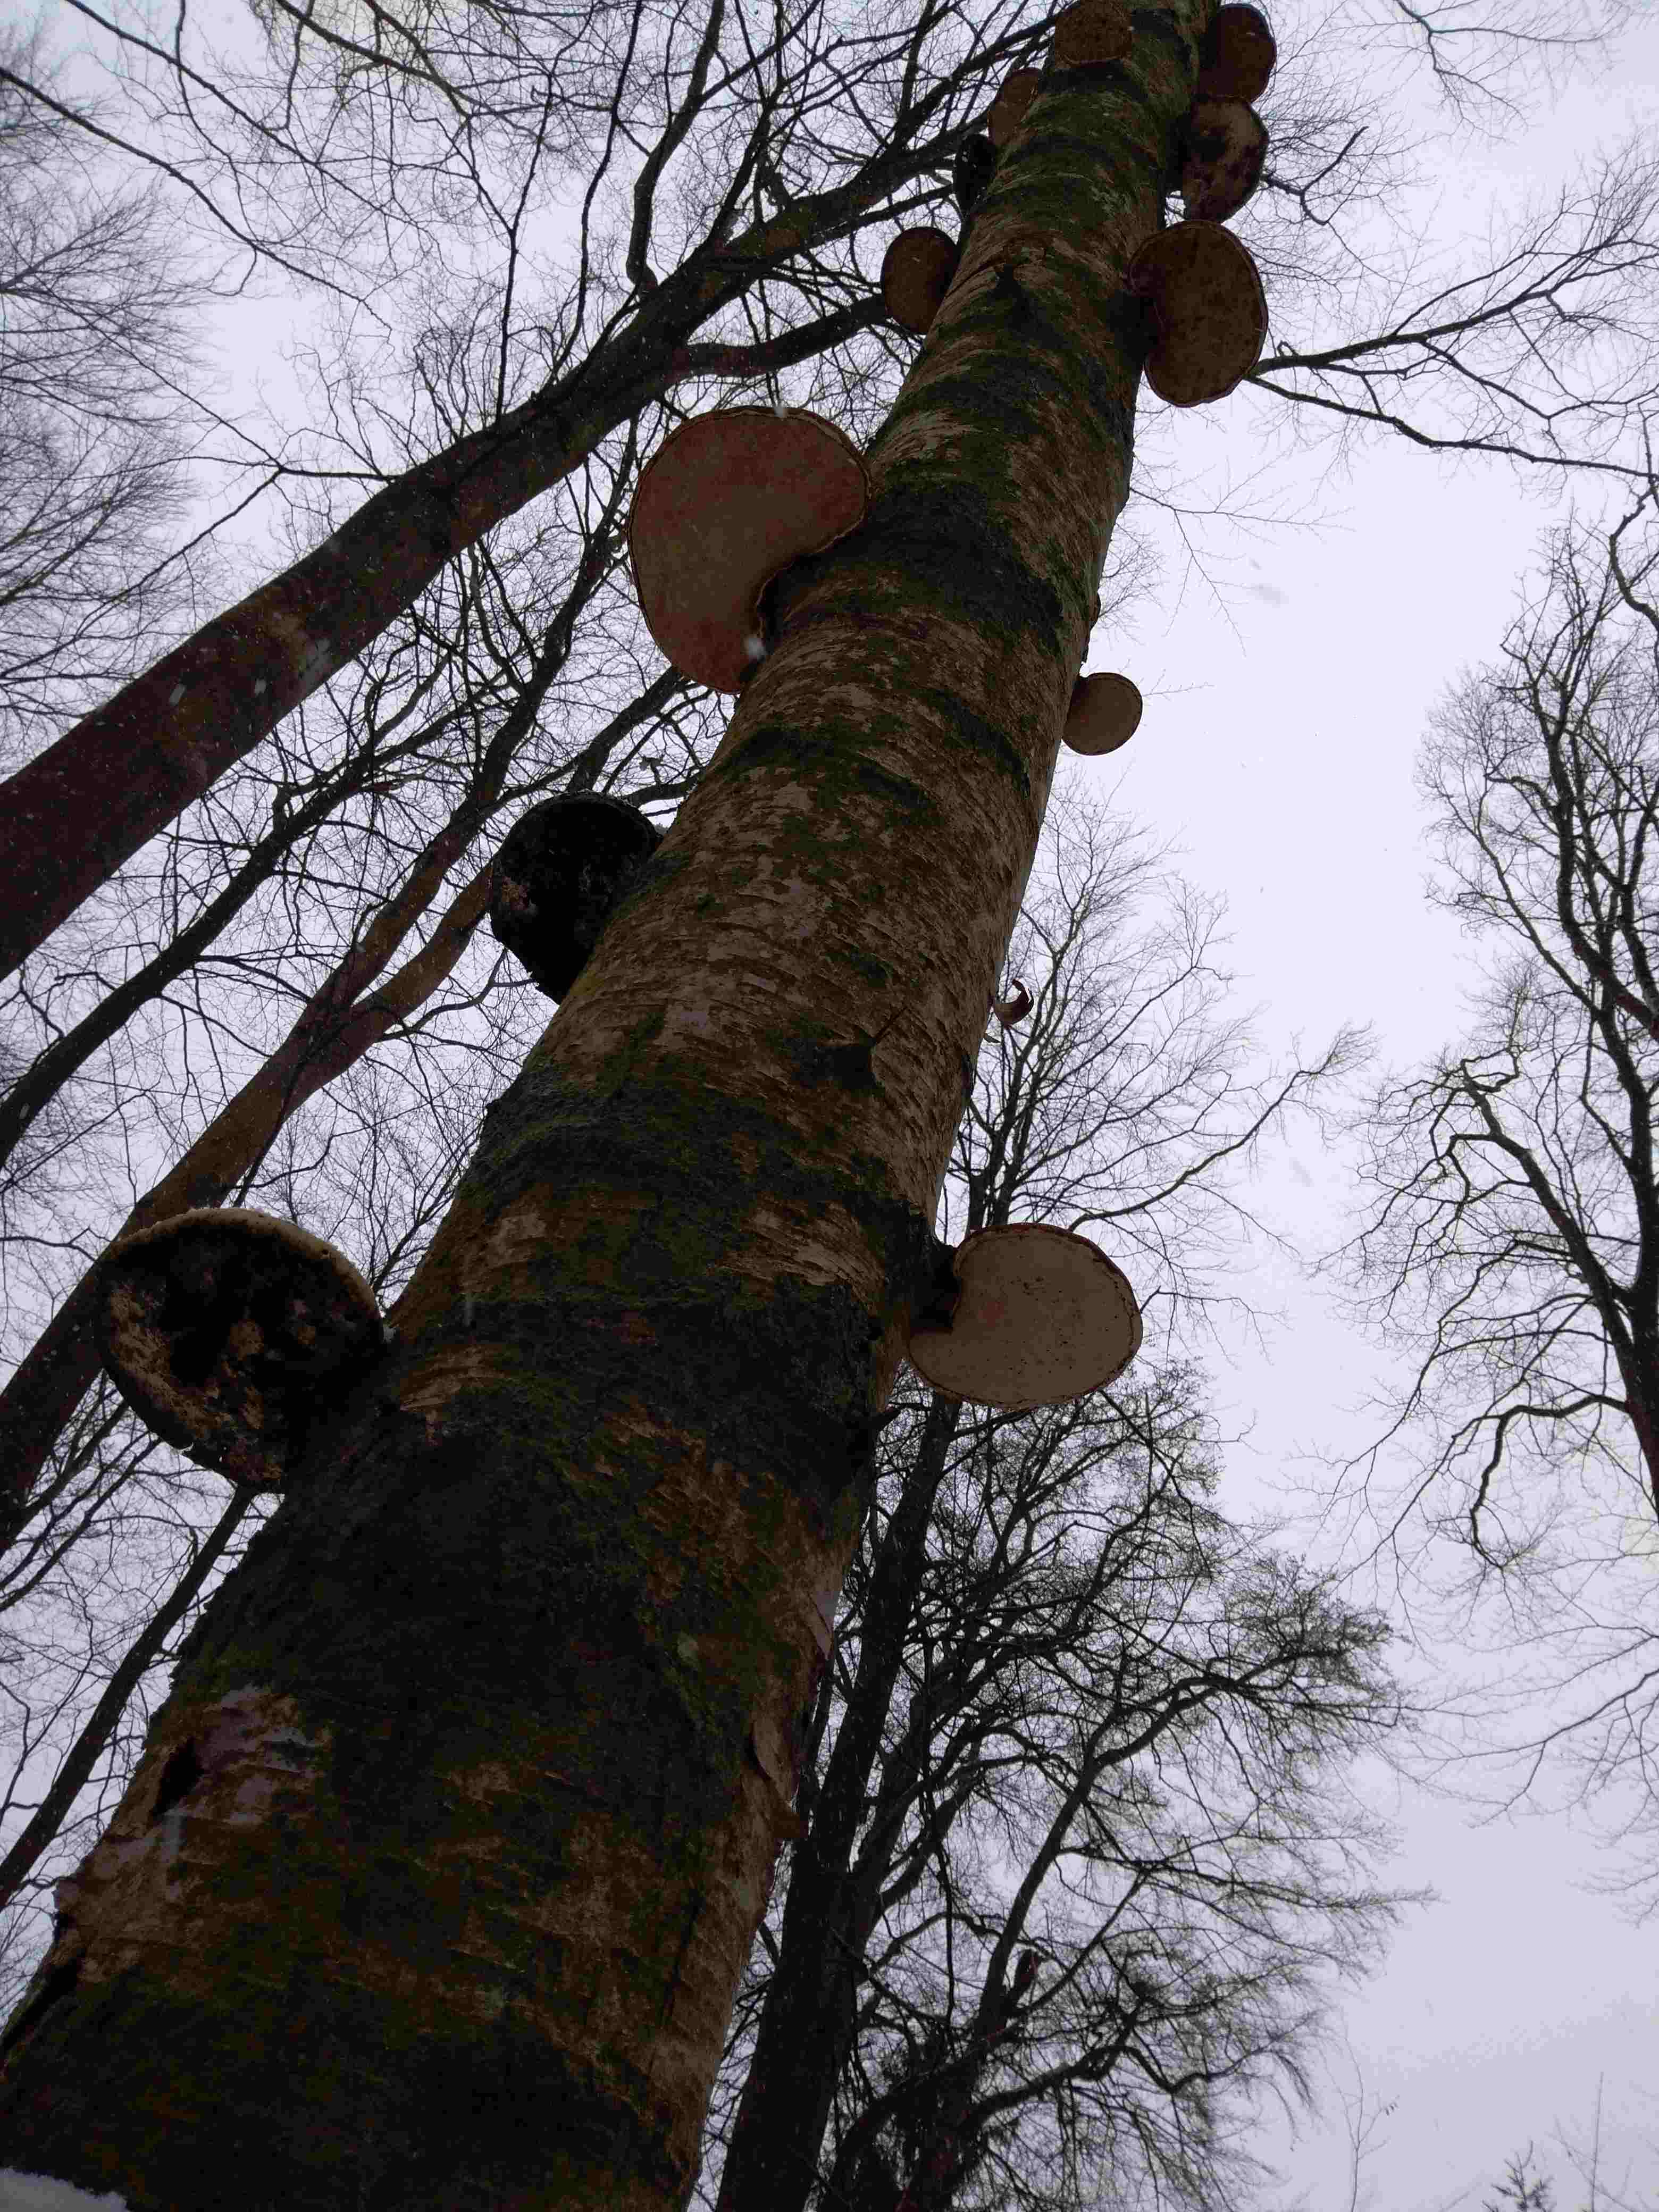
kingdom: Fungi
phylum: Basidiomycota
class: Agaricomycetes
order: Polyporales
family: Fomitopsidaceae
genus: Fomitopsis
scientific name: Fomitopsis betulina
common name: birkeporesvamp
